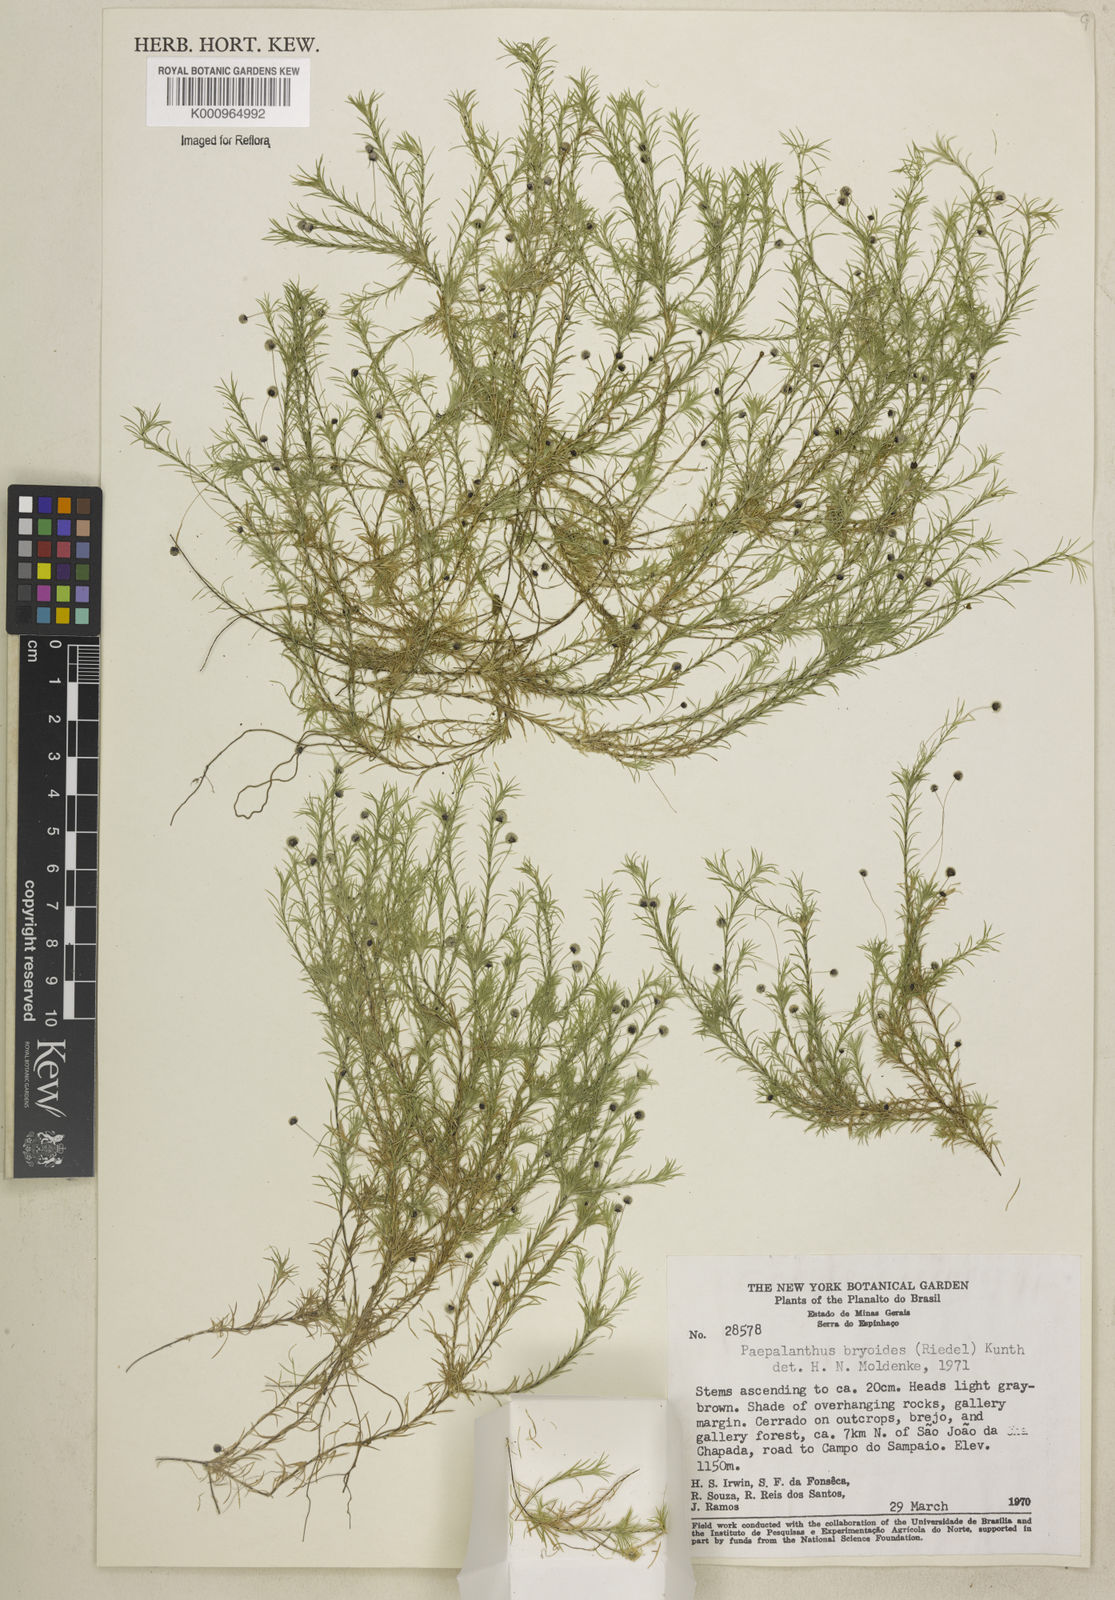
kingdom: Plantae
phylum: Tracheophyta
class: Liliopsida
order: Poales
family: Eriocaulaceae
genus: Paepalanthus
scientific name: Paepalanthus bryoides
